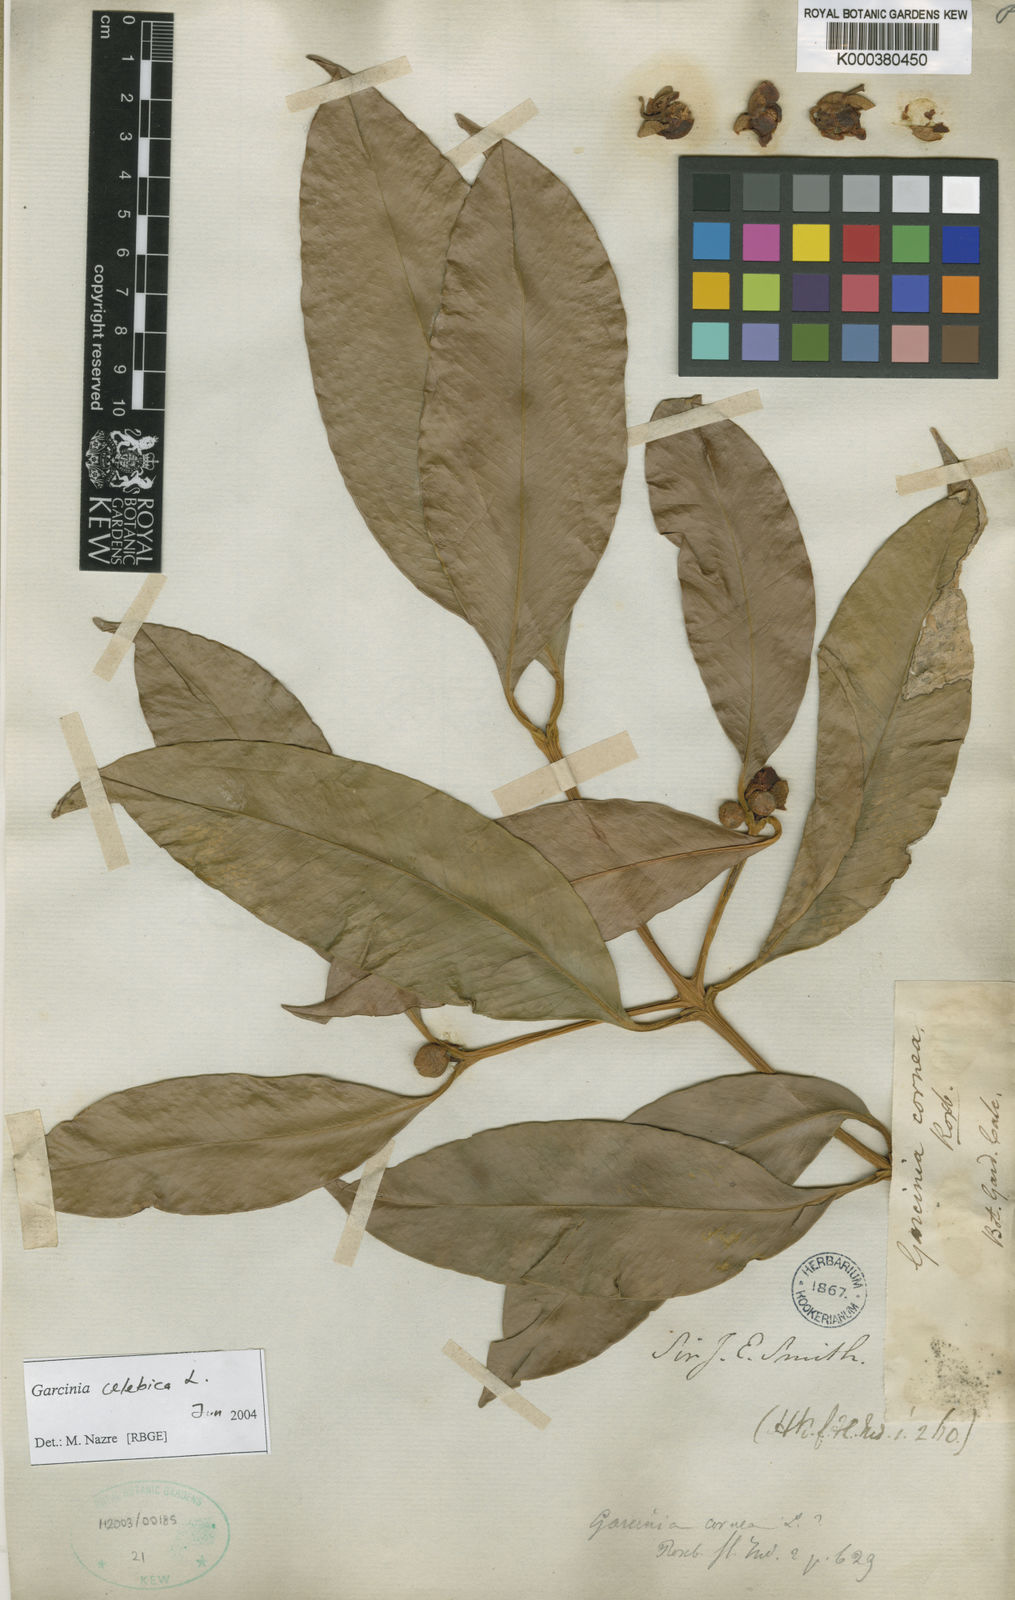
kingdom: Plantae
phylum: Tracheophyta
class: Magnoliopsida
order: Malpighiales
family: Clusiaceae
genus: Garcinia
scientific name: Garcinia celebica
